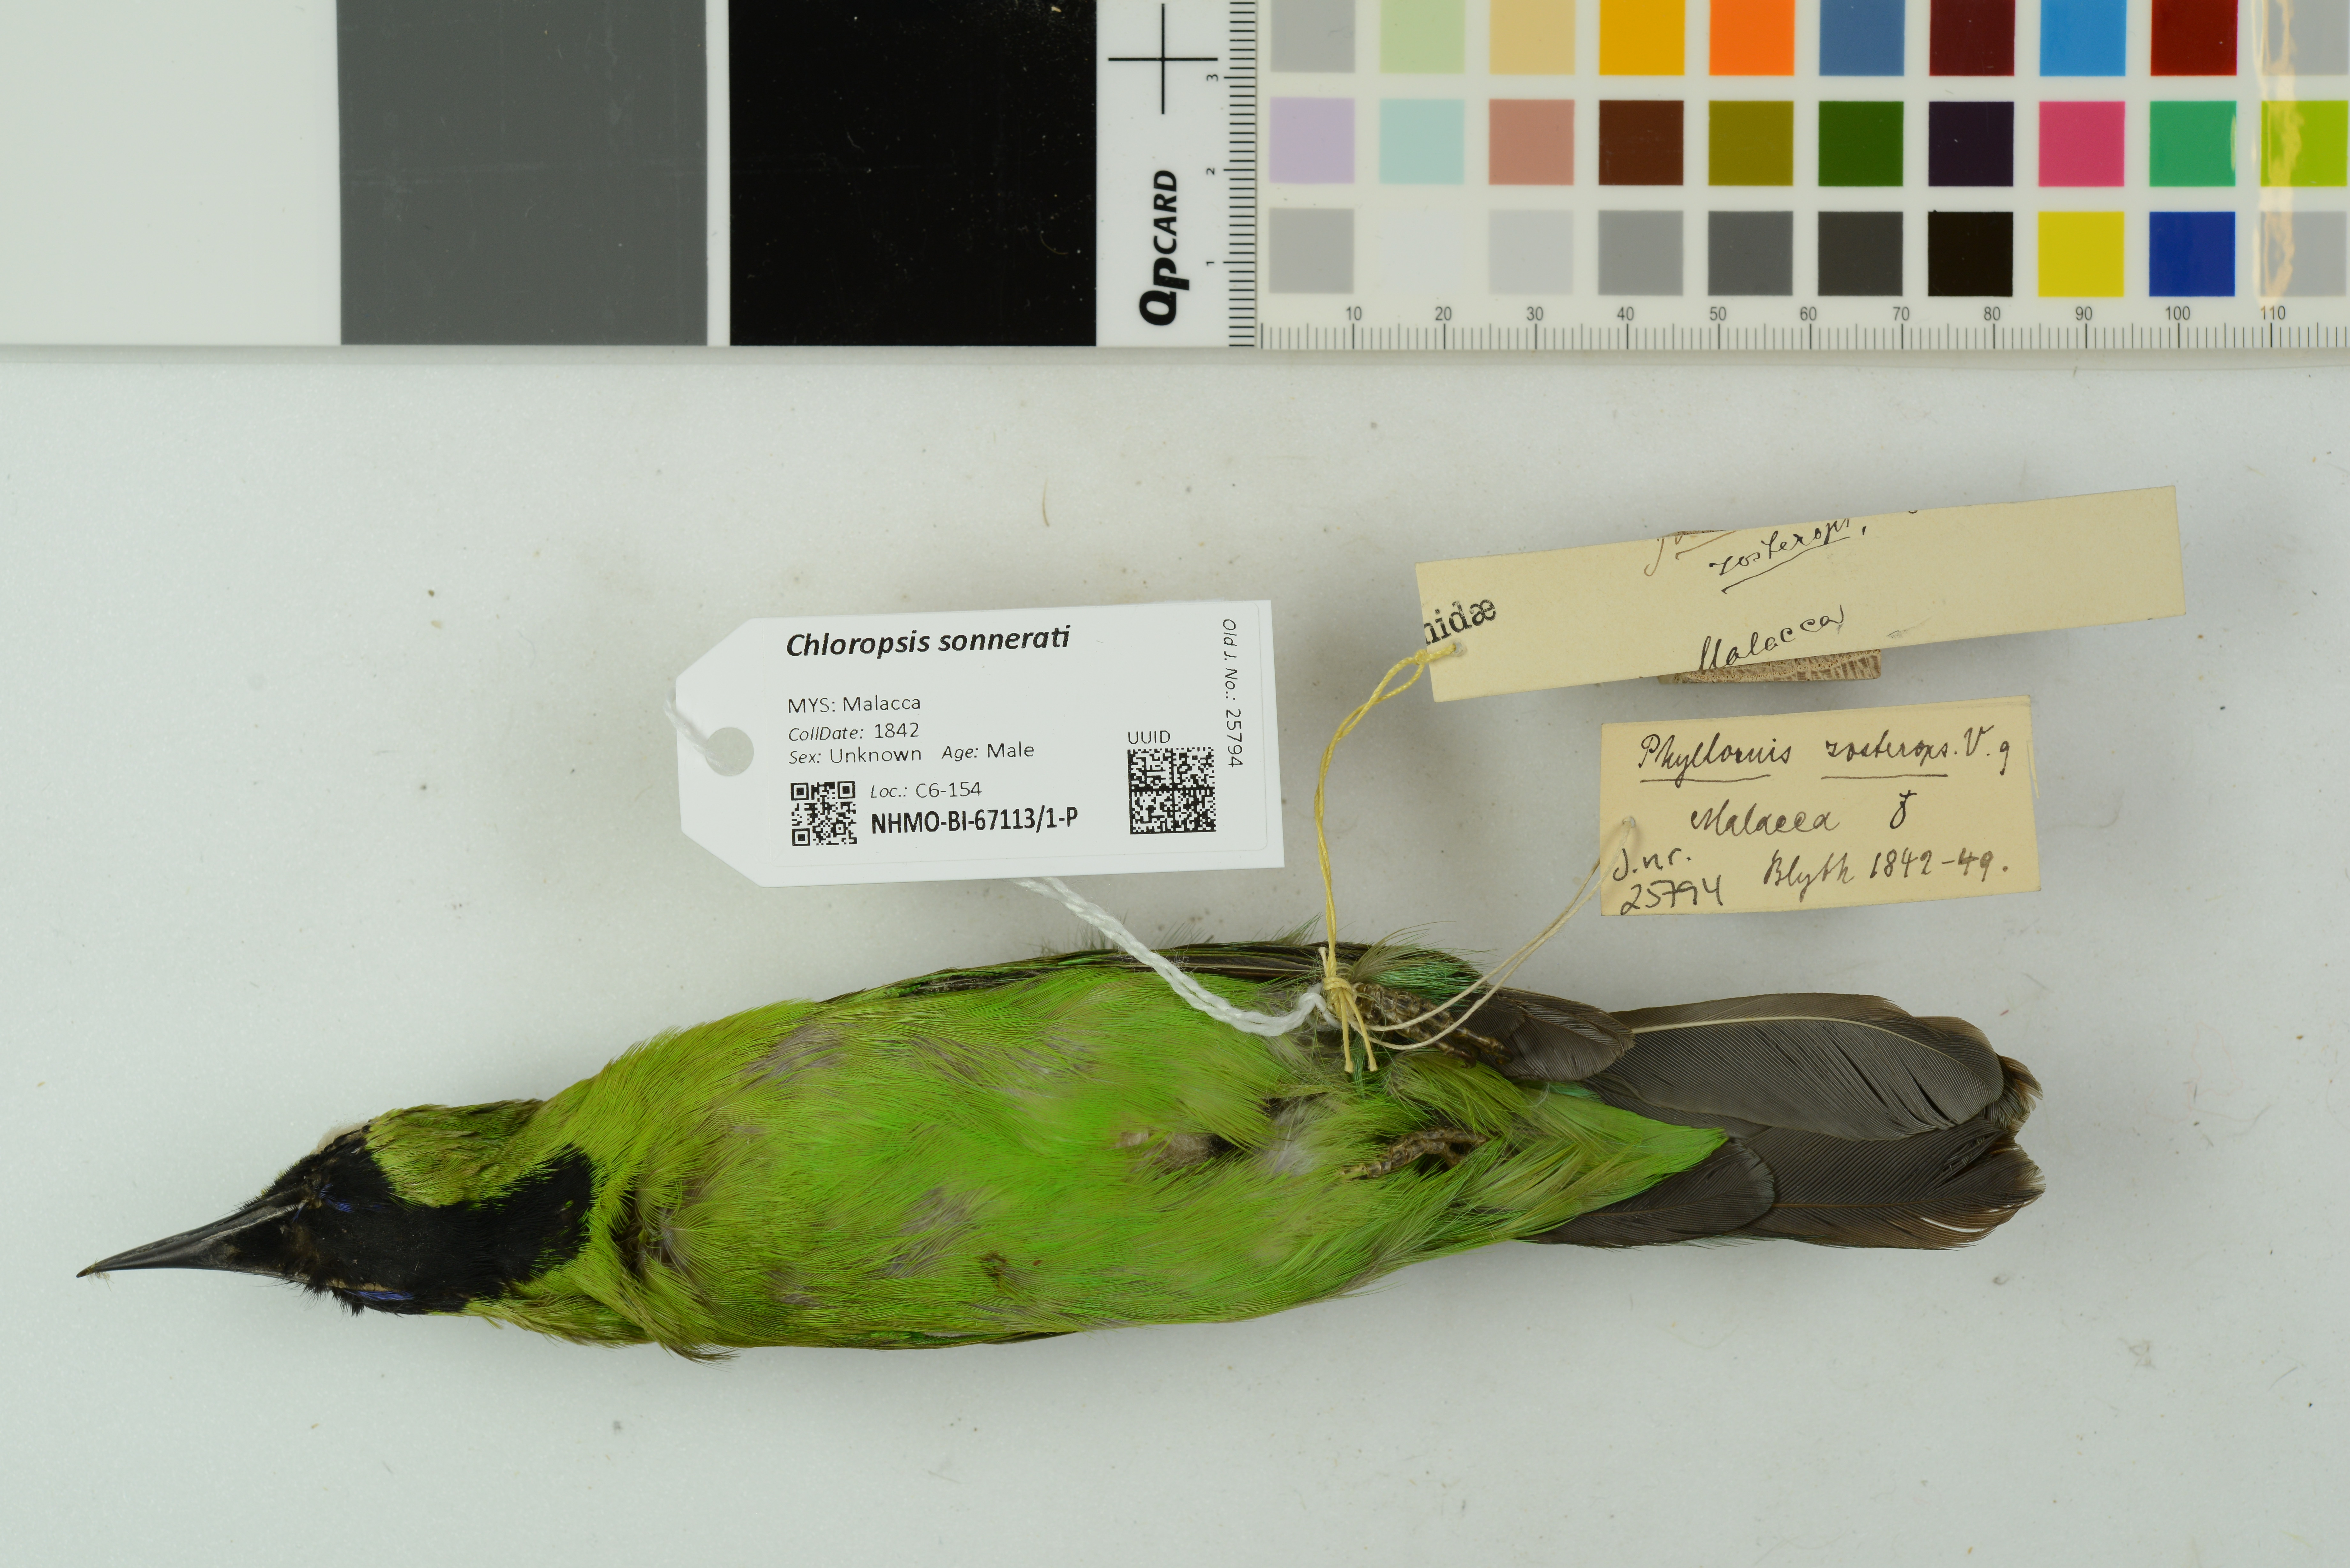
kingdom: Animalia
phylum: Chordata
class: Aves
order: Passeriformes
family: Chloropseidae
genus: Chloropsis
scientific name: Chloropsis sonnerati
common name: Greater green leafbird
